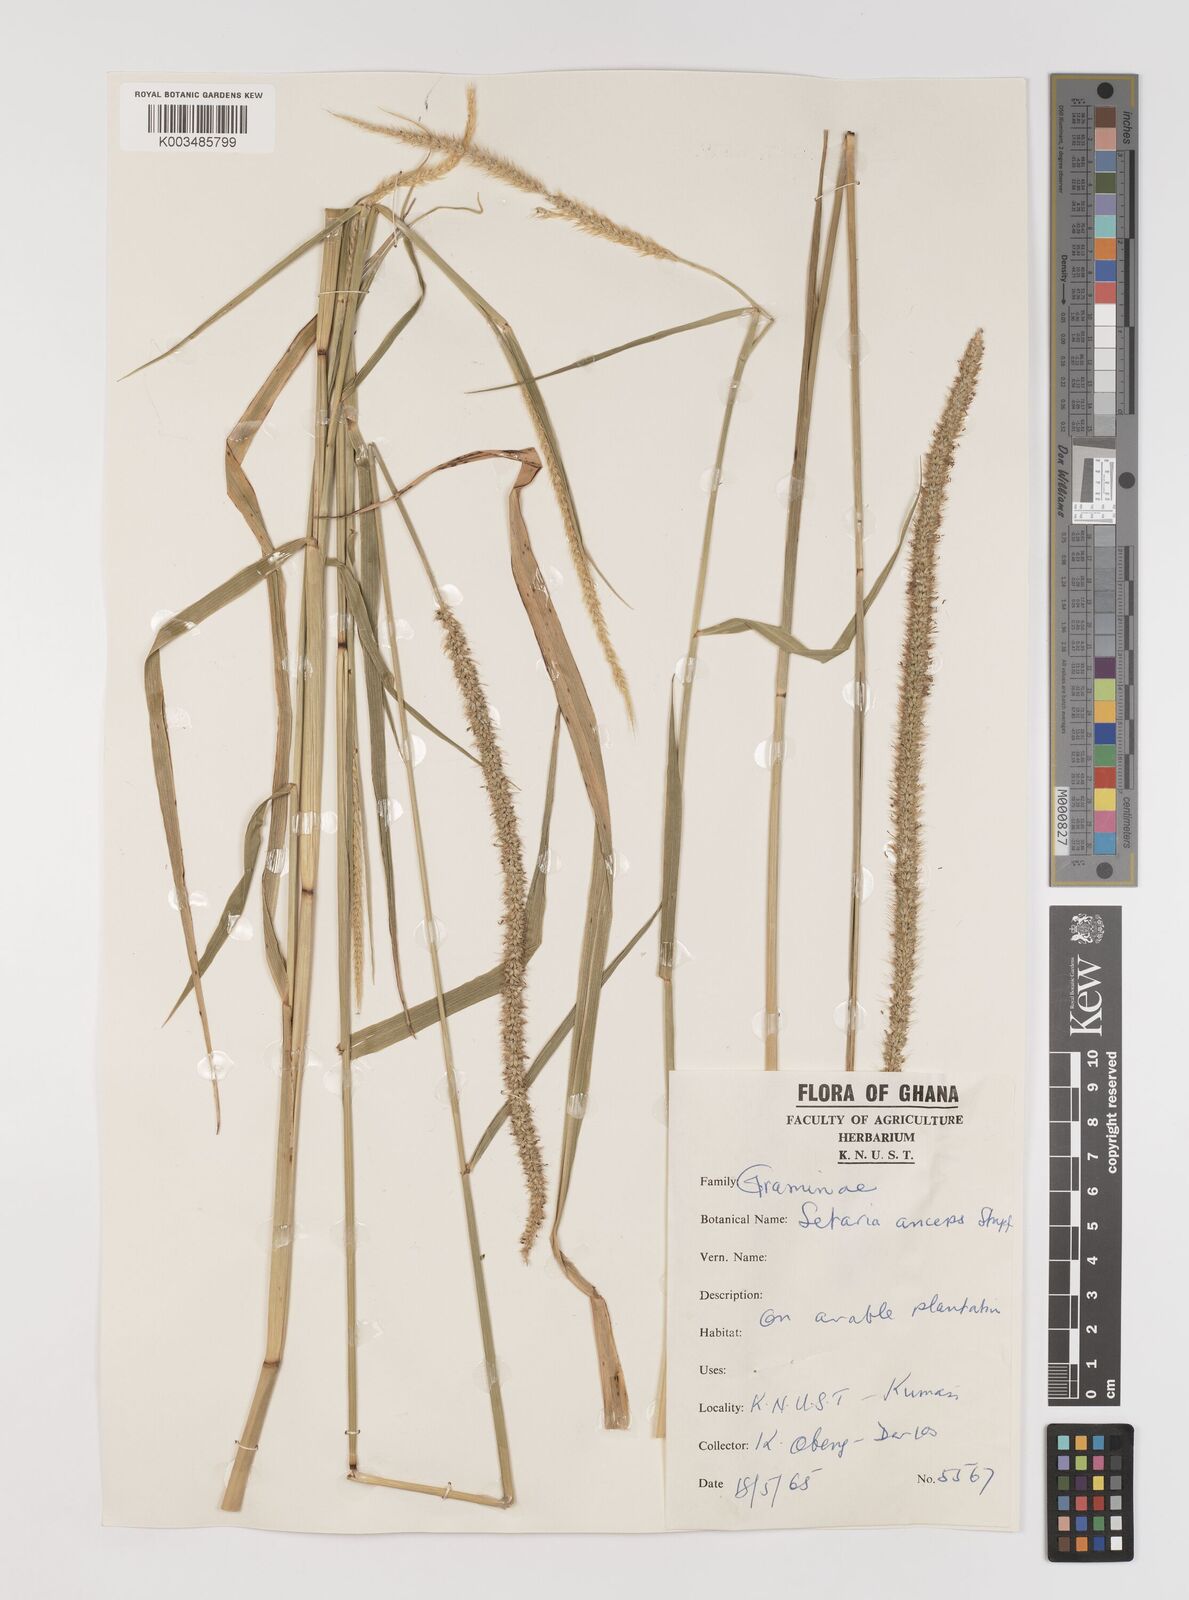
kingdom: Plantae
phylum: Tracheophyta
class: Liliopsida
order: Poales
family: Poaceae
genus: Setaria
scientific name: Setaria sphacelata
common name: African bristlegrass
